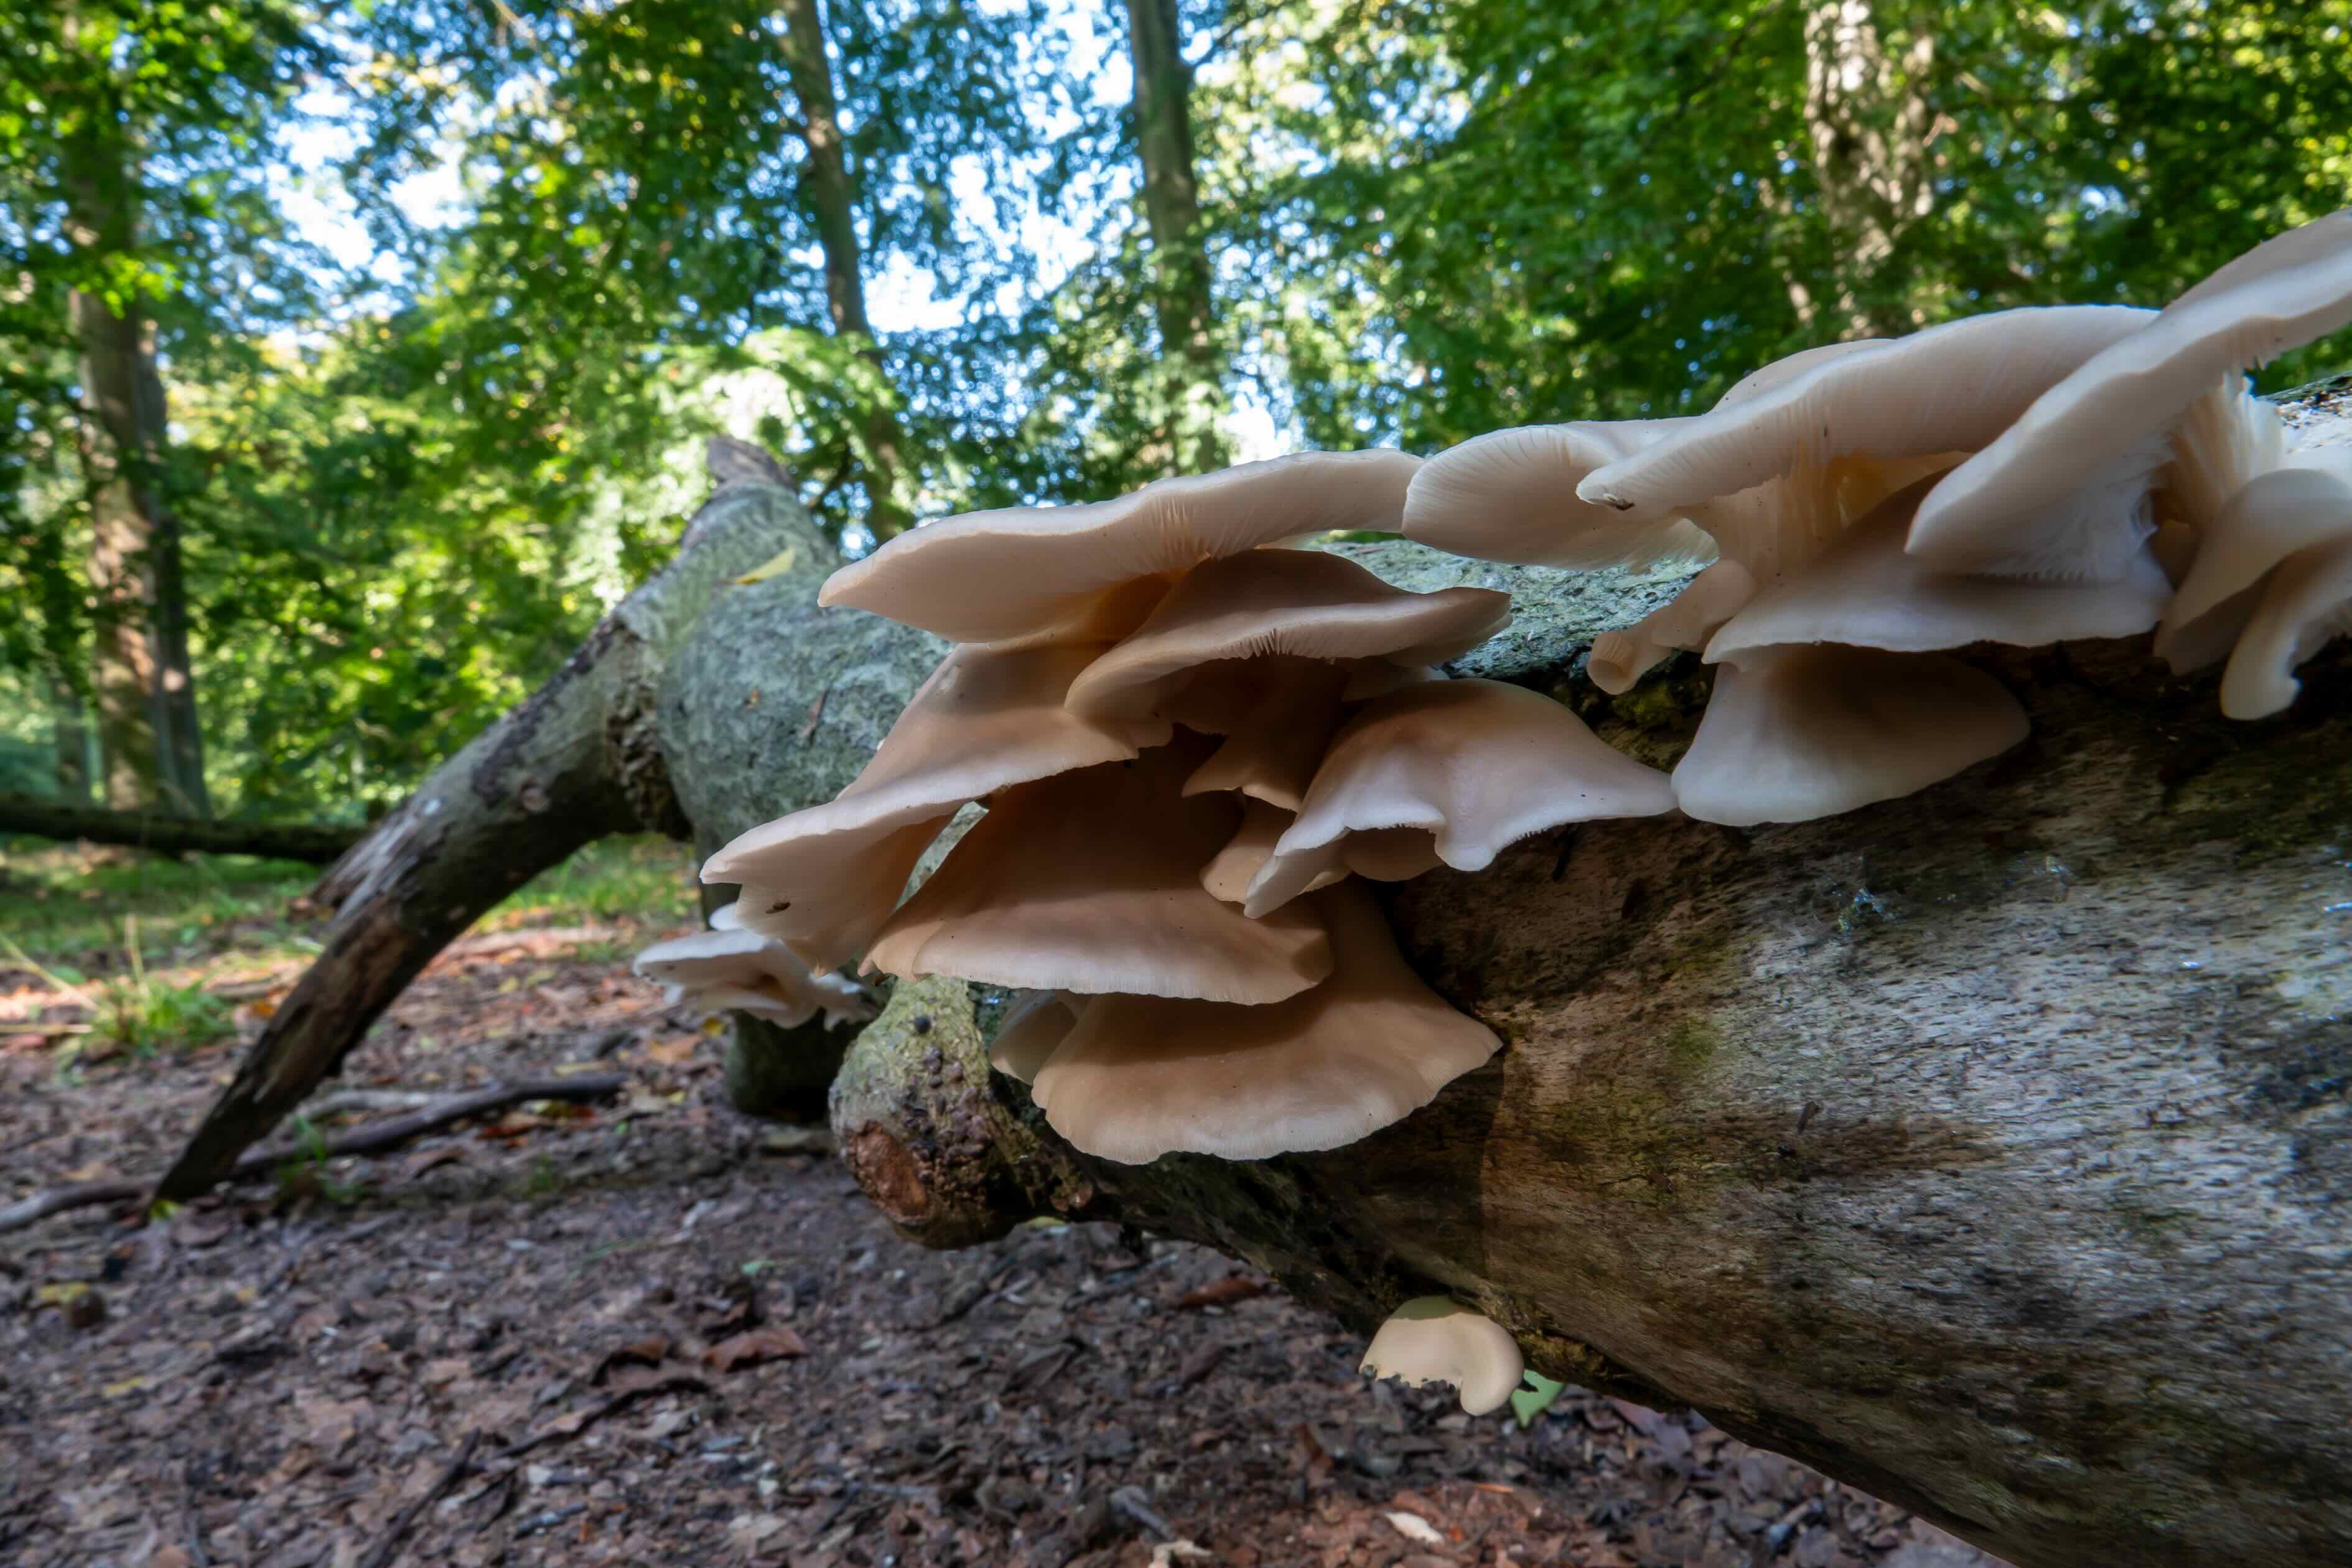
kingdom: Fungi
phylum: Basidiomycota
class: Agaricomycetes
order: Agaricales
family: Pleurotaceae
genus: Pleurotus
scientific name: Pleurotus pulmonarius
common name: sommer-østershat
